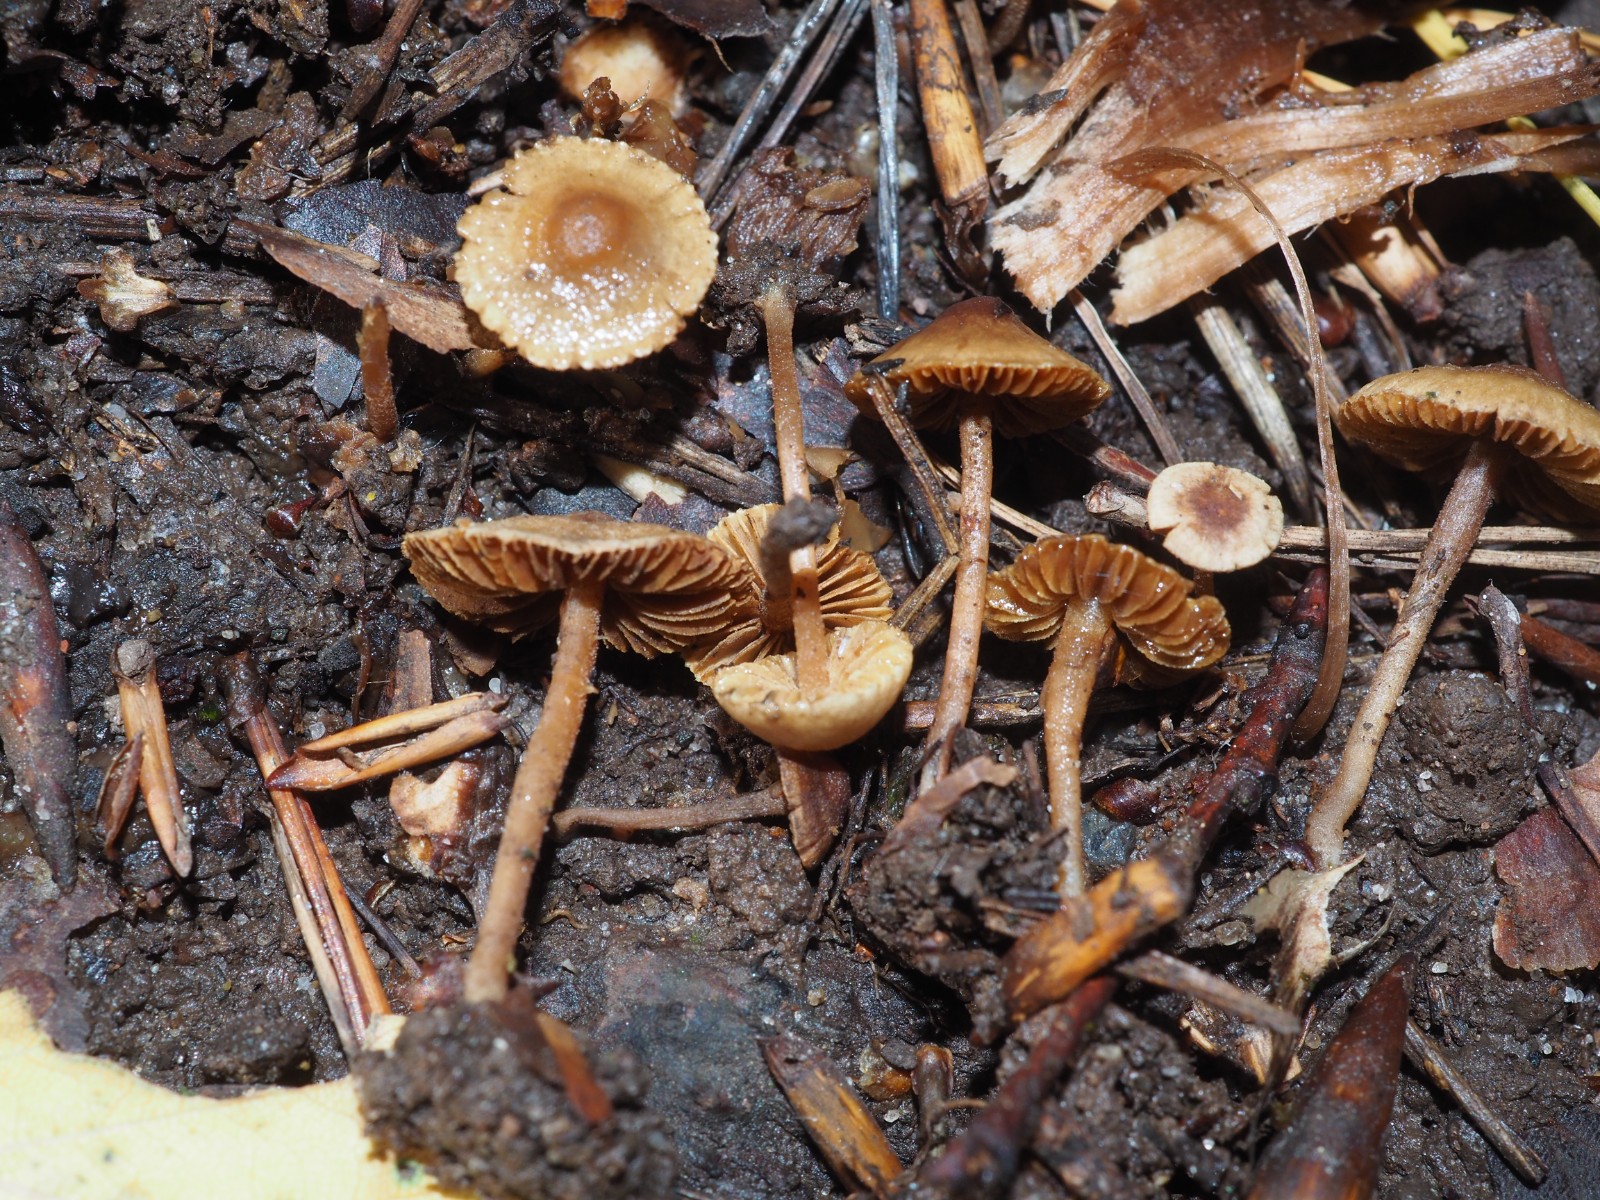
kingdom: Fungi
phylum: Basidiomycota
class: Agaricomycetes
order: Agaricales
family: Inocybaceae
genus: Inocybe
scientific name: Inocybe petiginosa
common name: liden trævlhat
